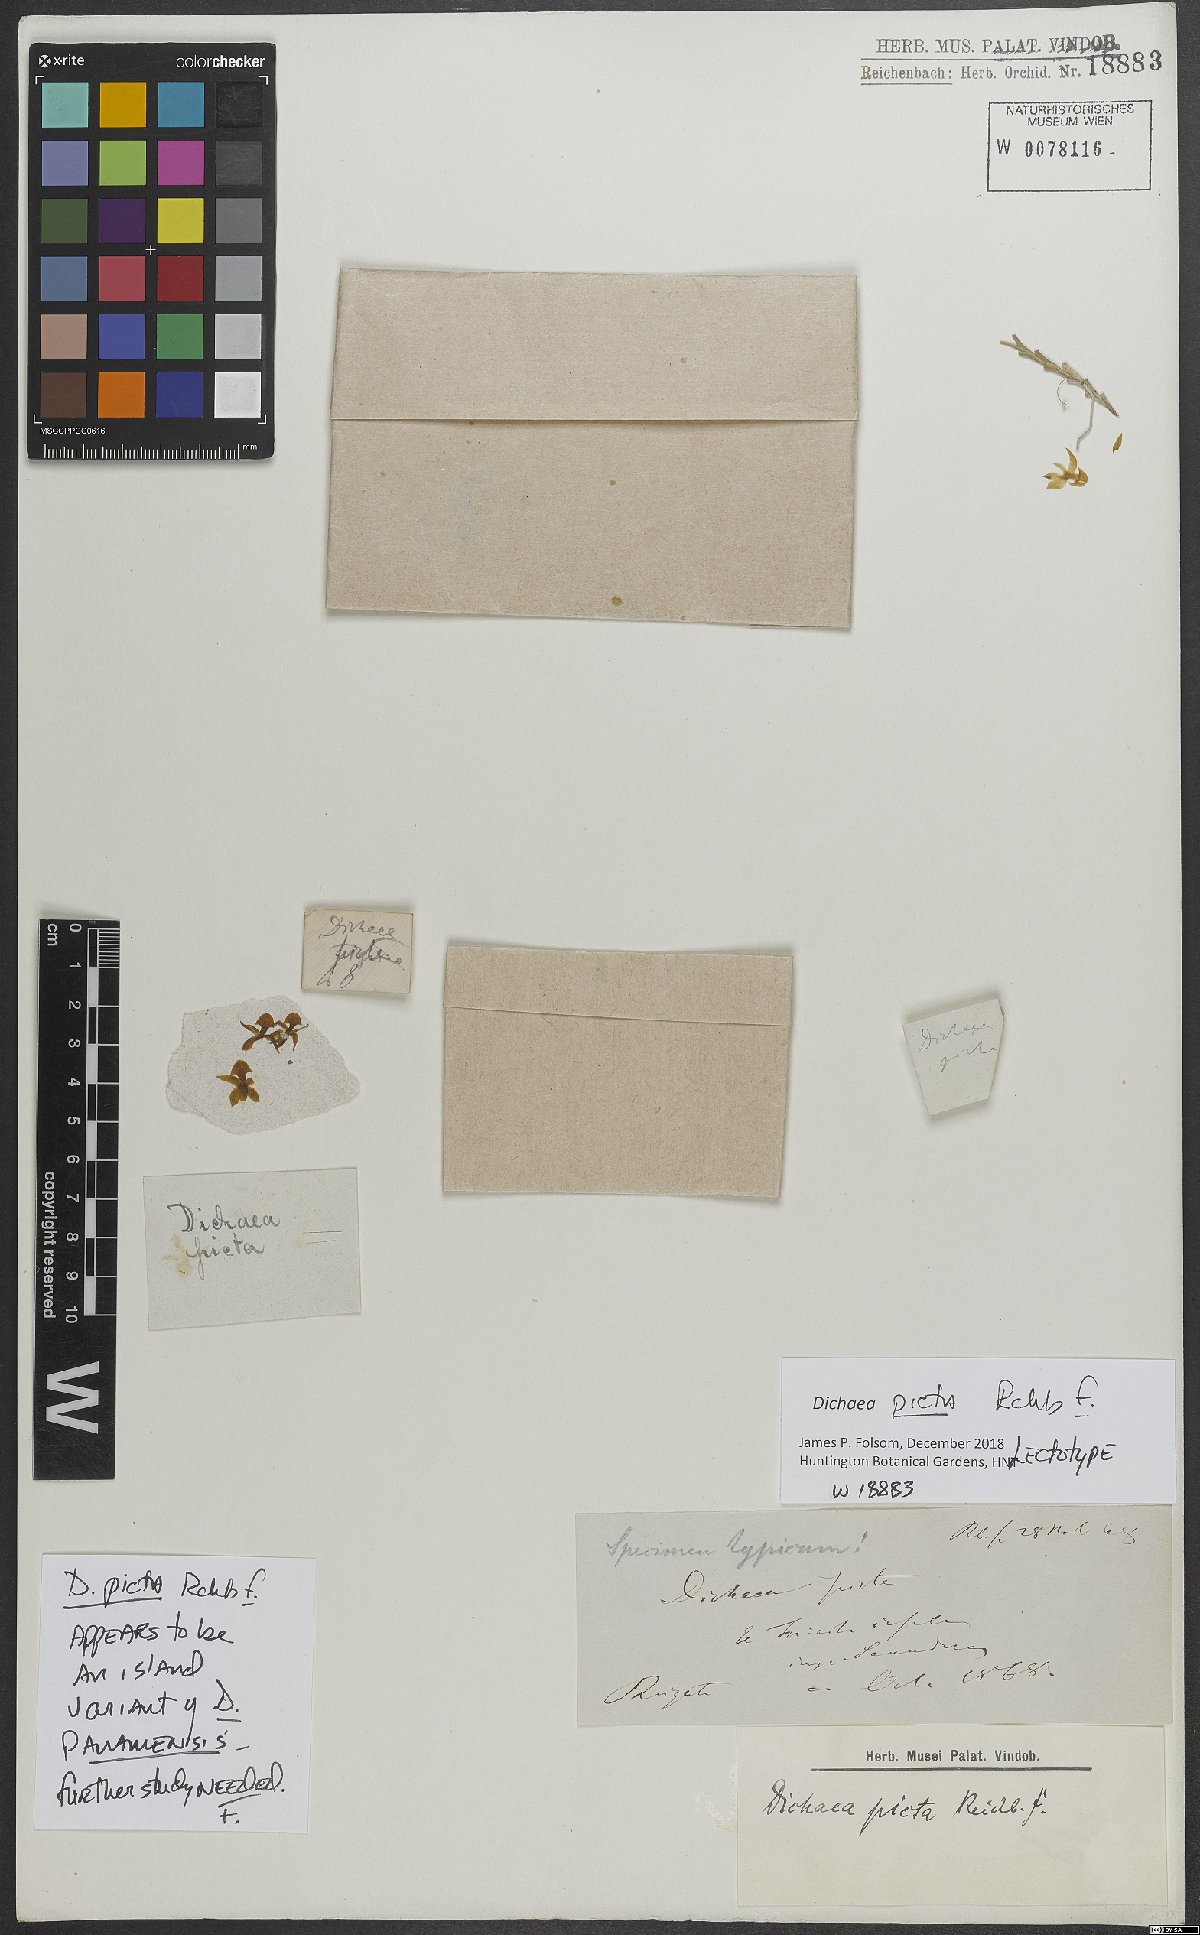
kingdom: Plantae
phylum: Tracheophyta
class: Liliopsida
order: Asparagales
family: Orchidaceae
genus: Dichaea
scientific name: Dichaea picta
